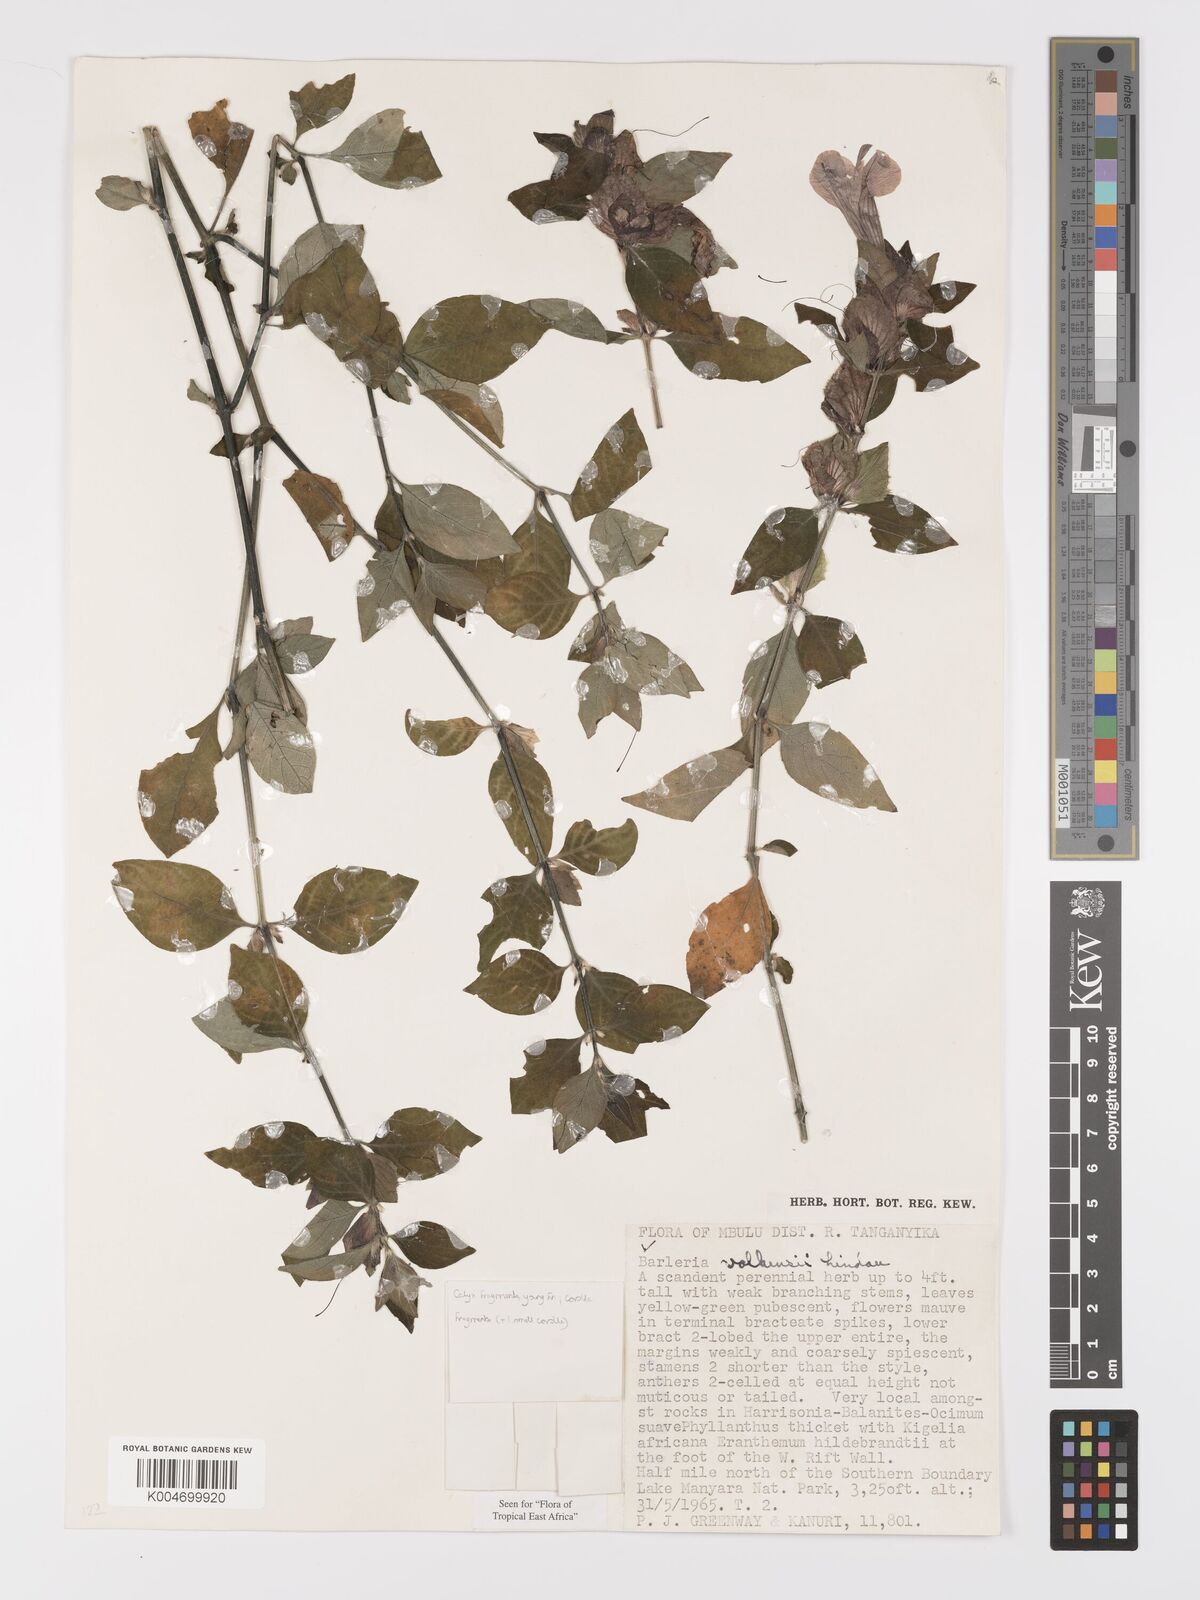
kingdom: Plantae
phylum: Tracheophyta
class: Magnoliopsida
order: Lamiales
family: Acanthaceae
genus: Barleria
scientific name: Barleria volkensii
